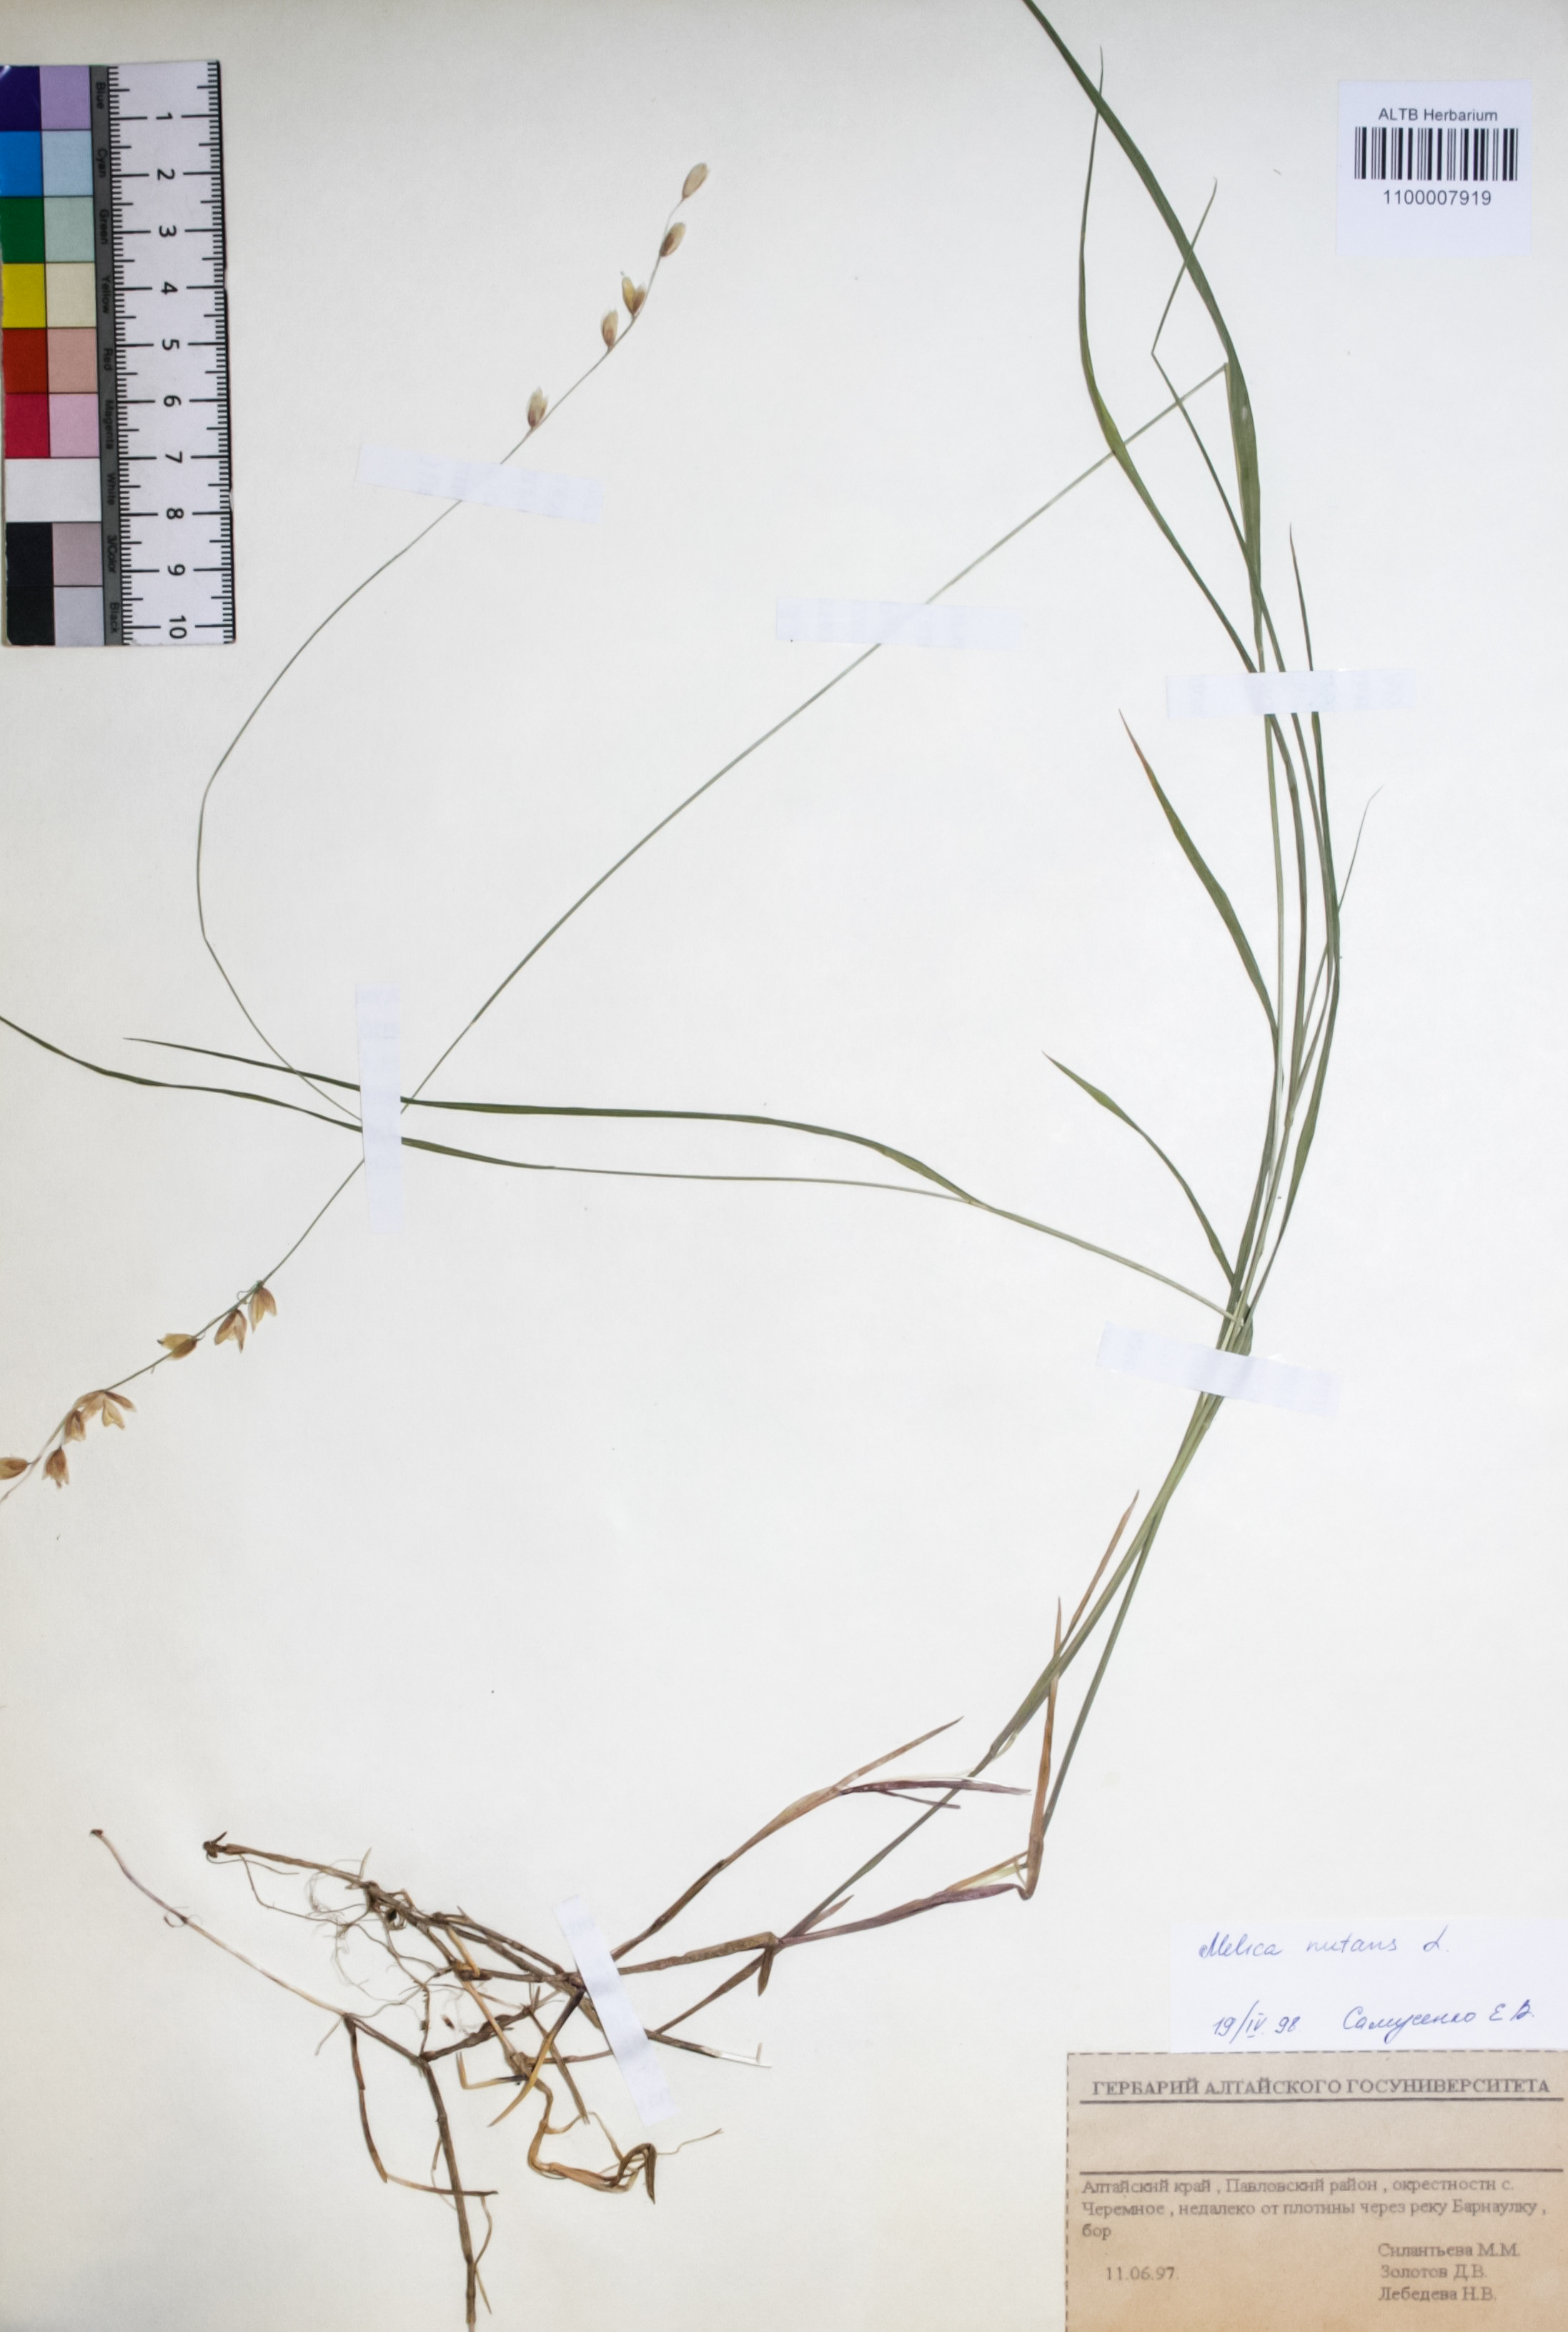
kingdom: Plantae
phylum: Tracheophyta
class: Liliopsida
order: Poales
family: Poaceae
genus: Melica
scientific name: Melica nutans
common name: Mountain melick
